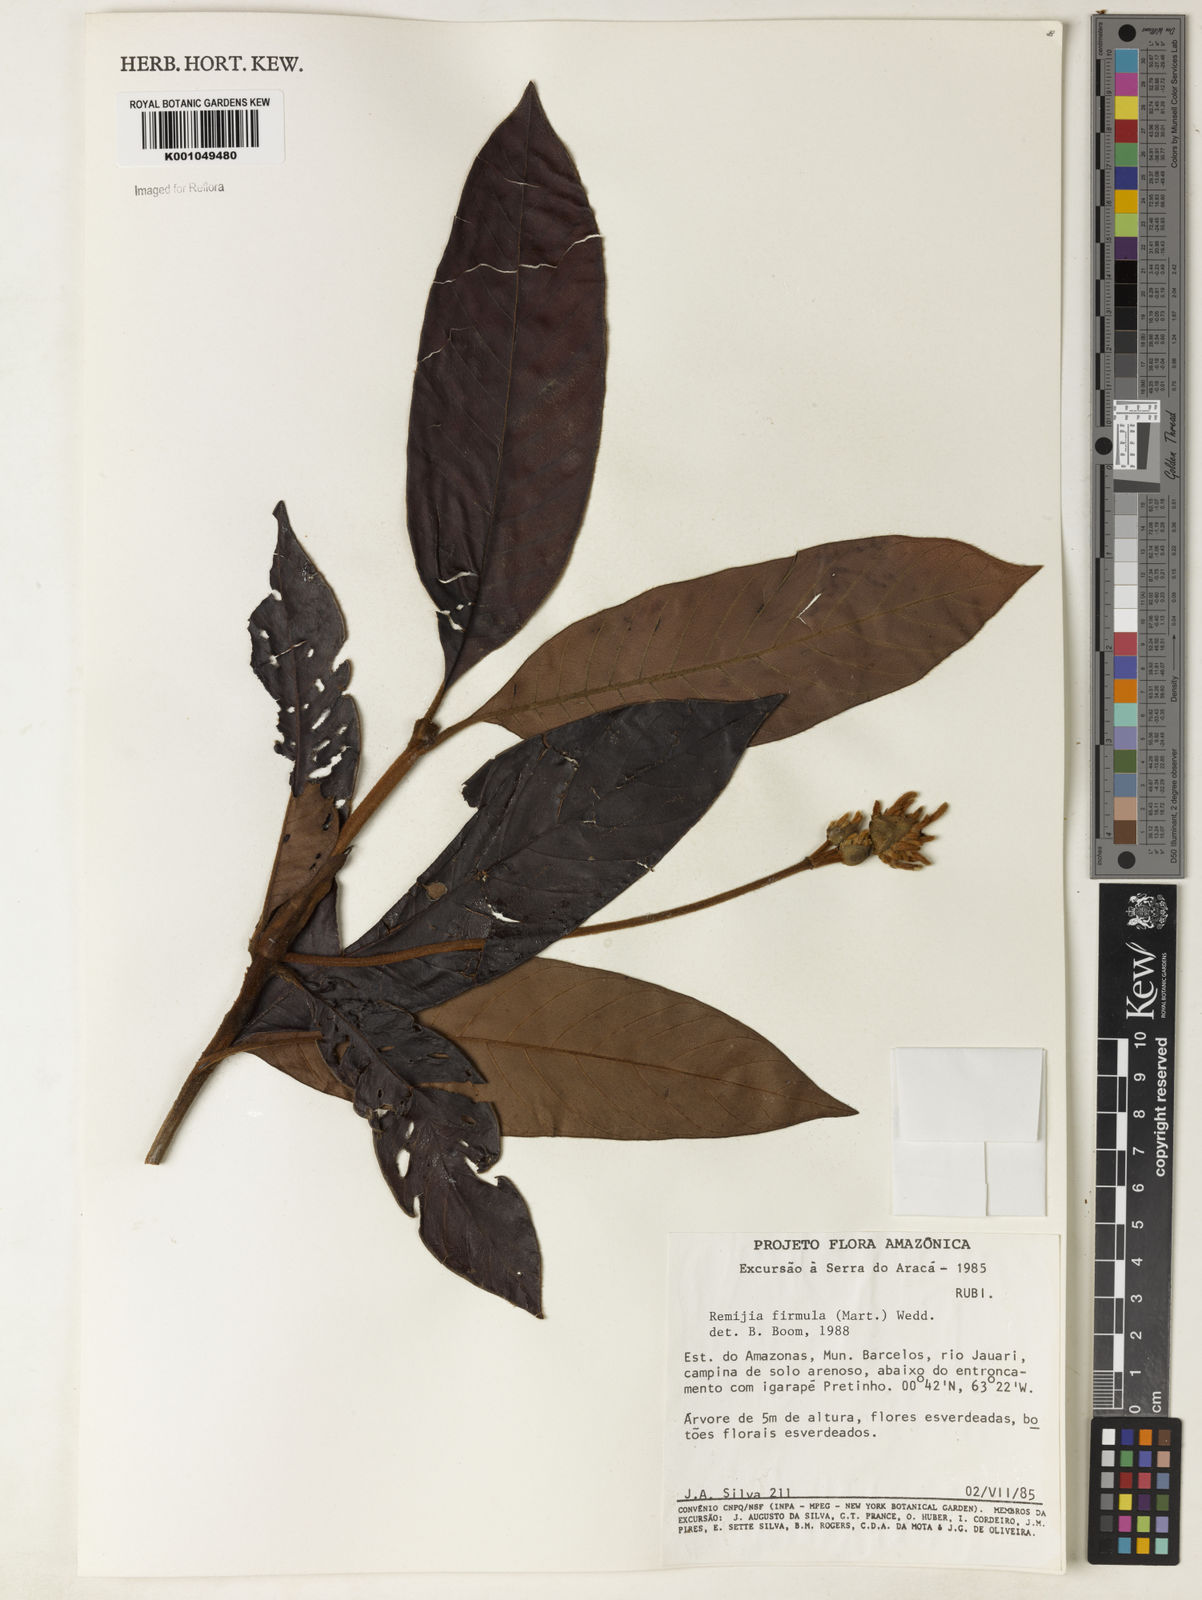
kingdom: Plantae
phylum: Tracheophyta
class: Magnoliopsida
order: Gentianales
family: Rubiaceae
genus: Remijia
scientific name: Remijia firmula
